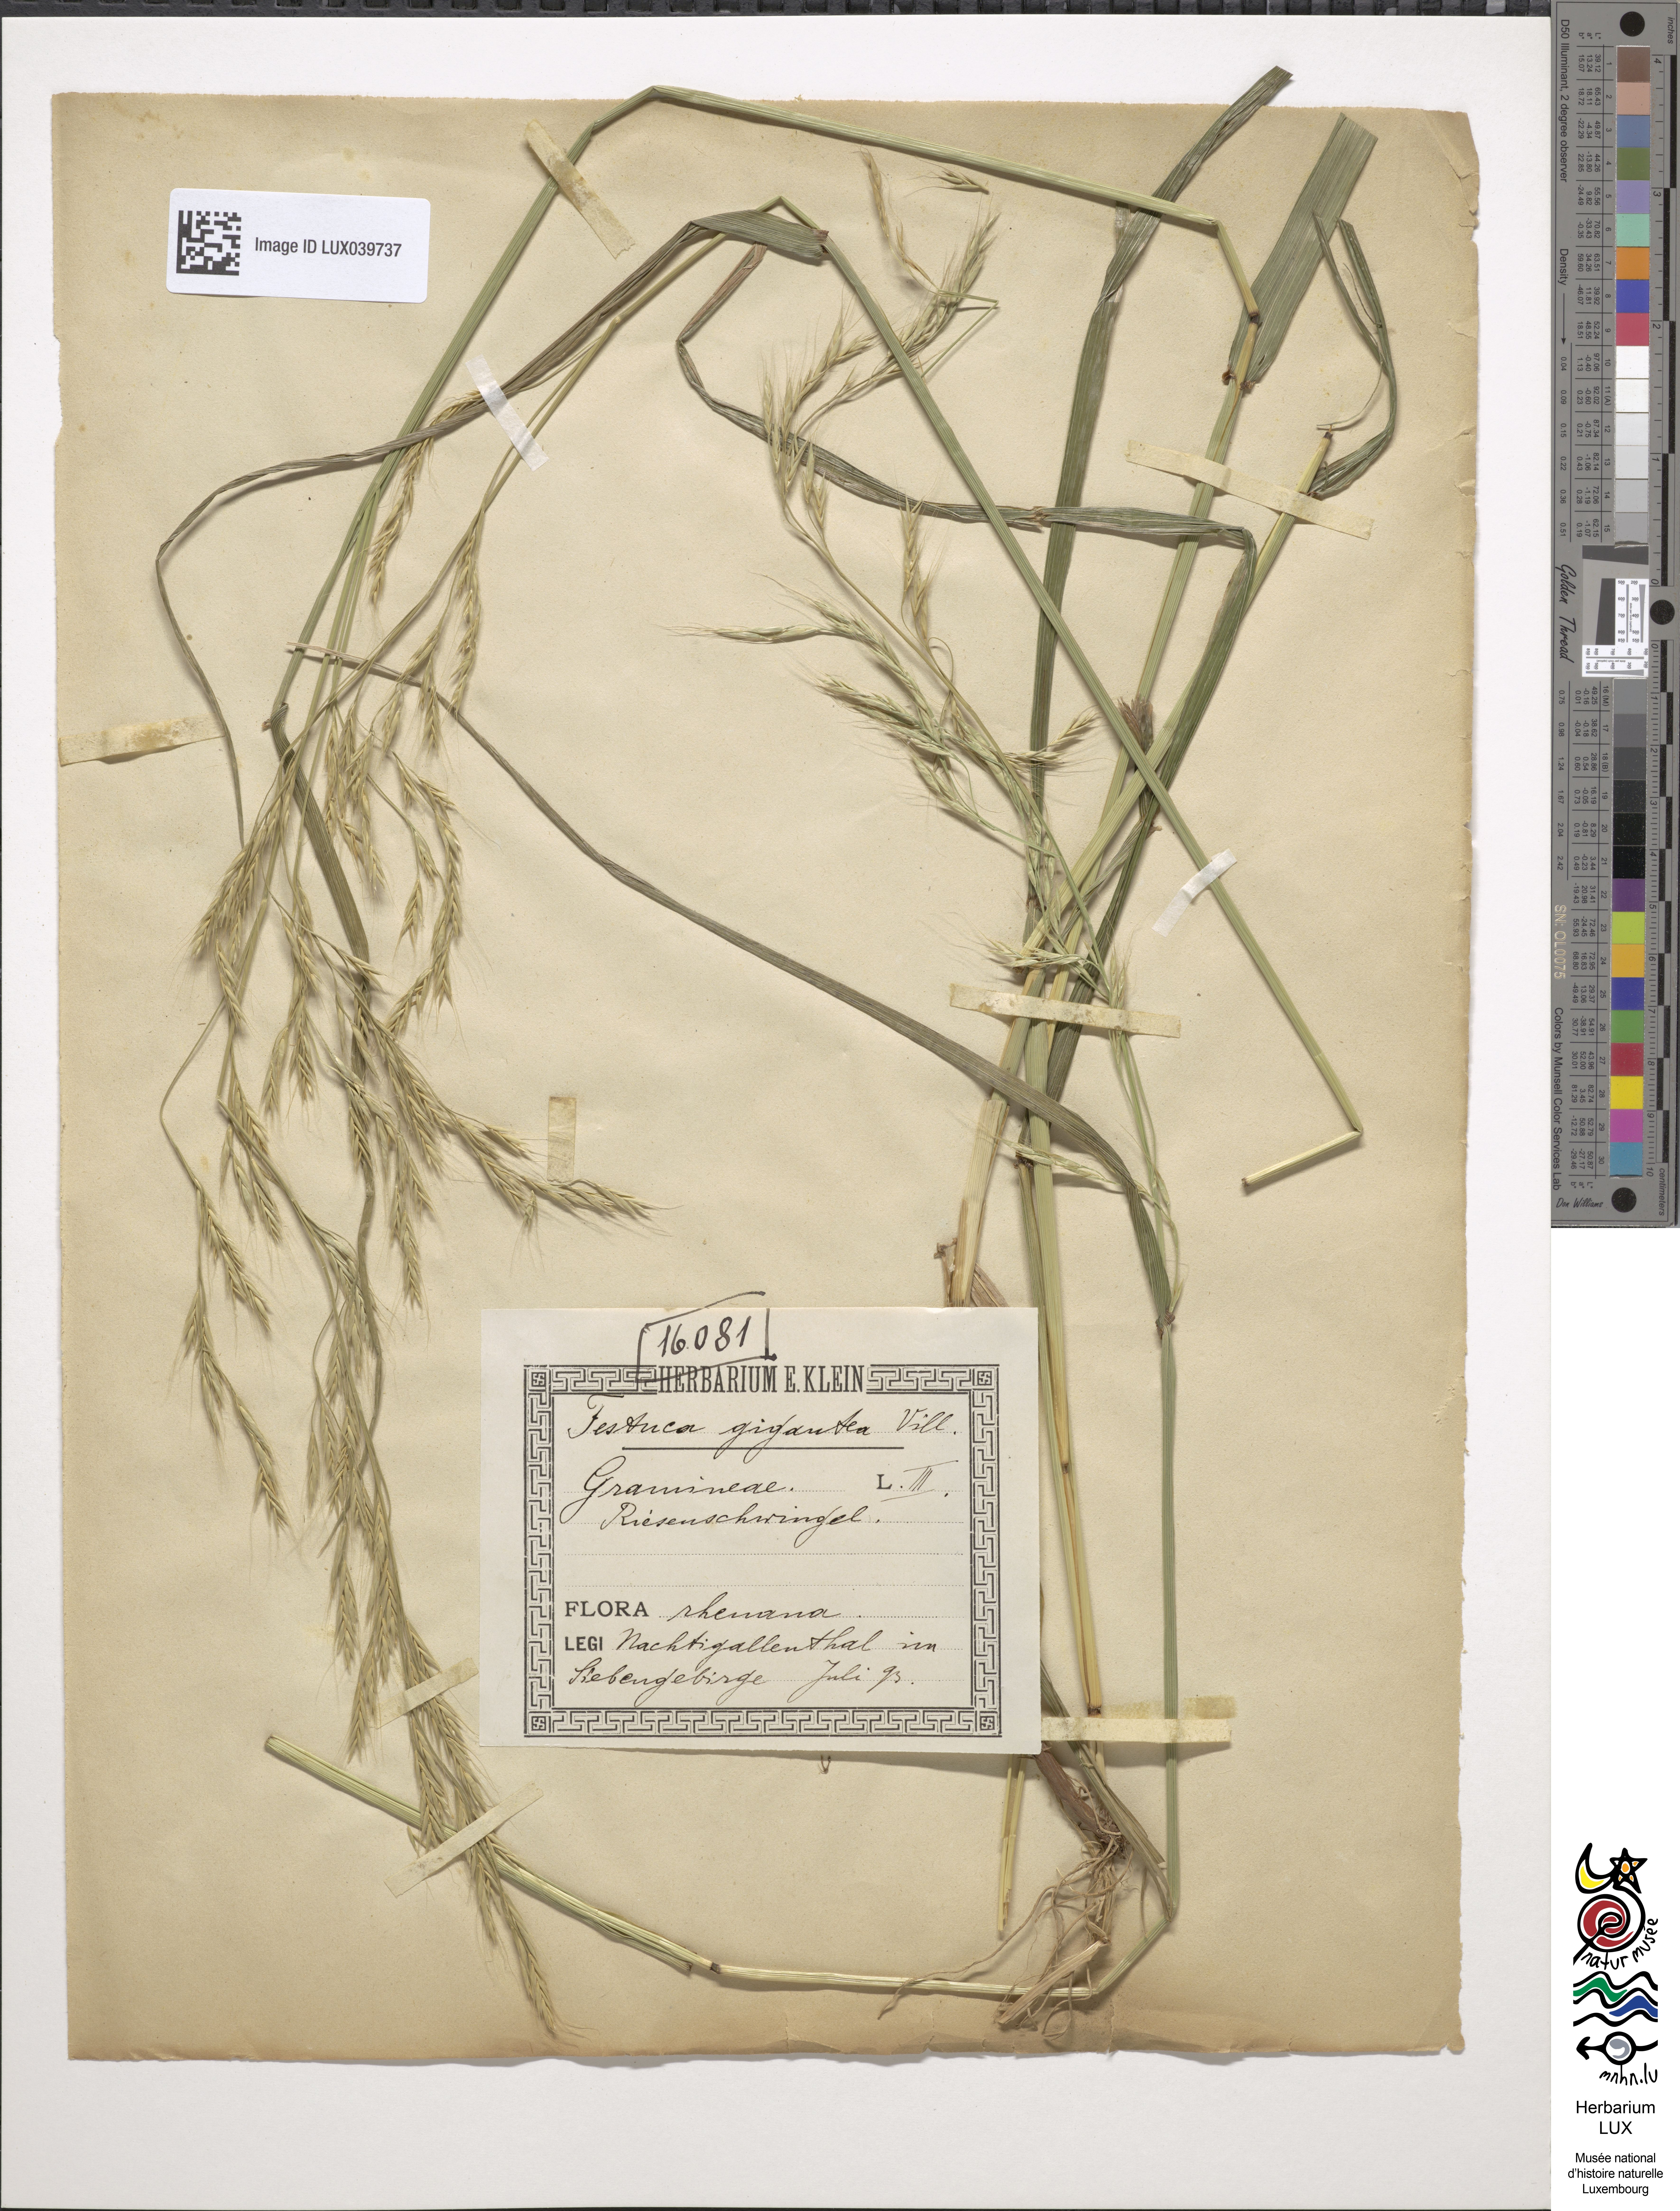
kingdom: Plantae
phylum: Tracheophyta
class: Liliopsida
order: Poales
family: Poaceae
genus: Lolium
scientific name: Lolium giganteum
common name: Giant fescue
